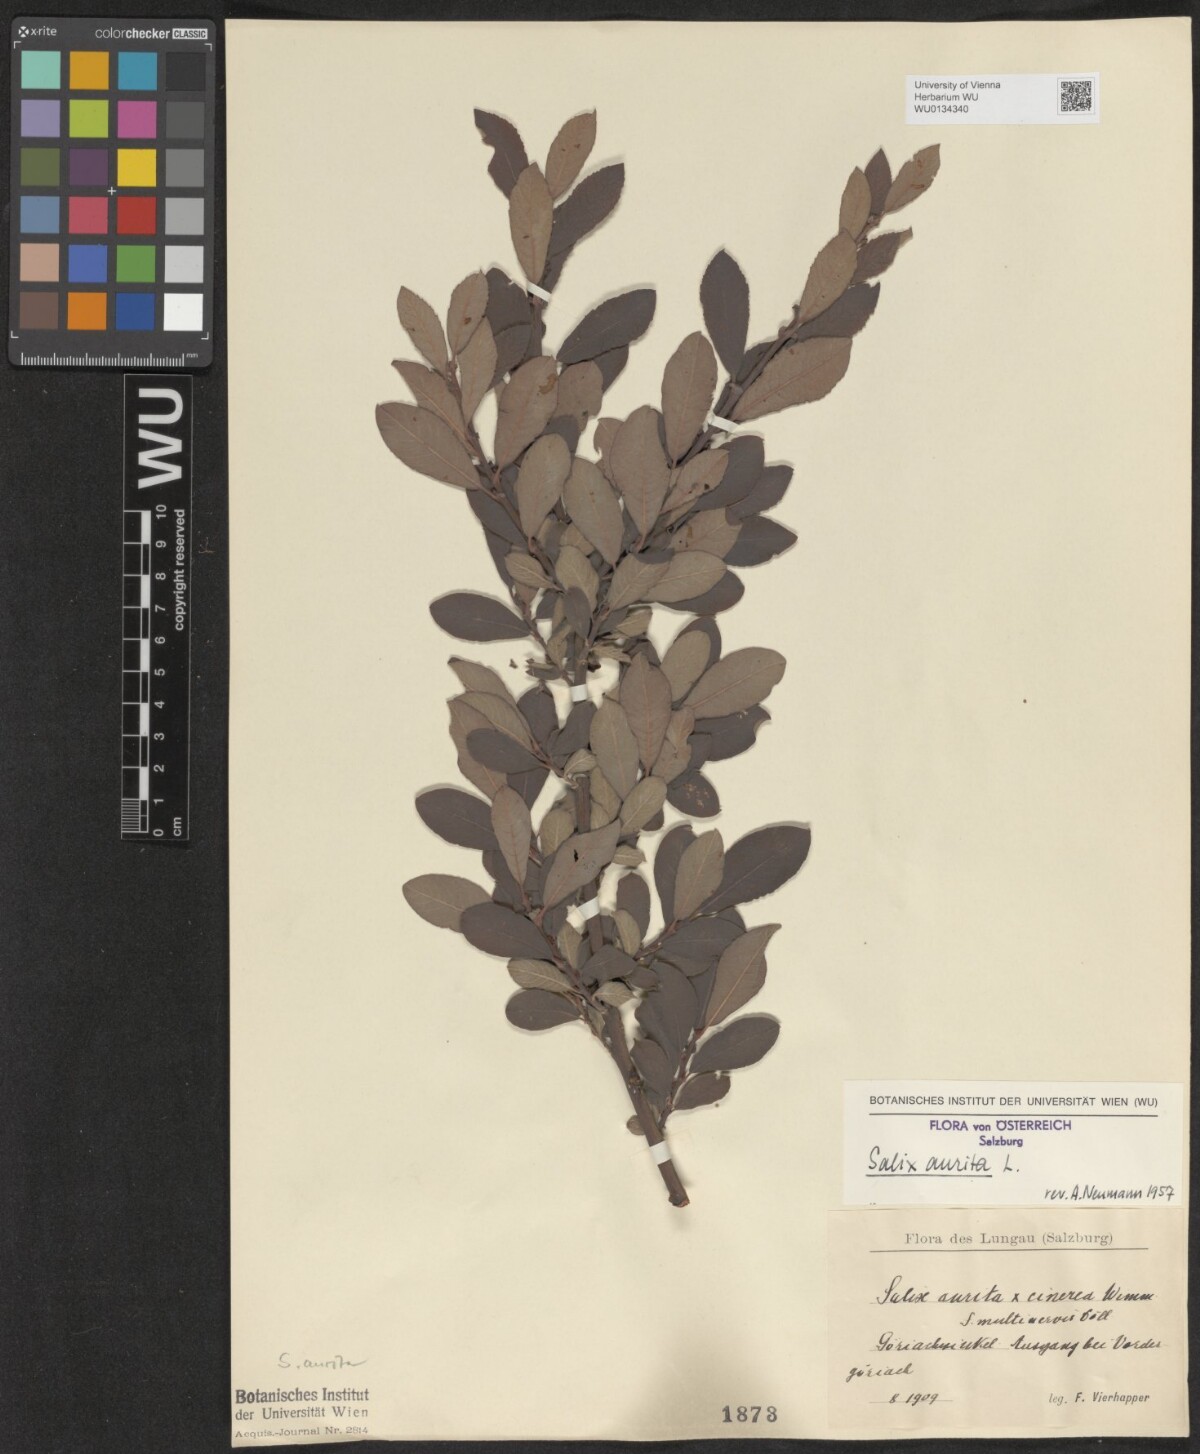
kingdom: Plantae
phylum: Tracheophyta
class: Magnoliopsida
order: Malpighiales
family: Salicaceae
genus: Salix
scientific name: Salix aurita
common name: Eared willow
